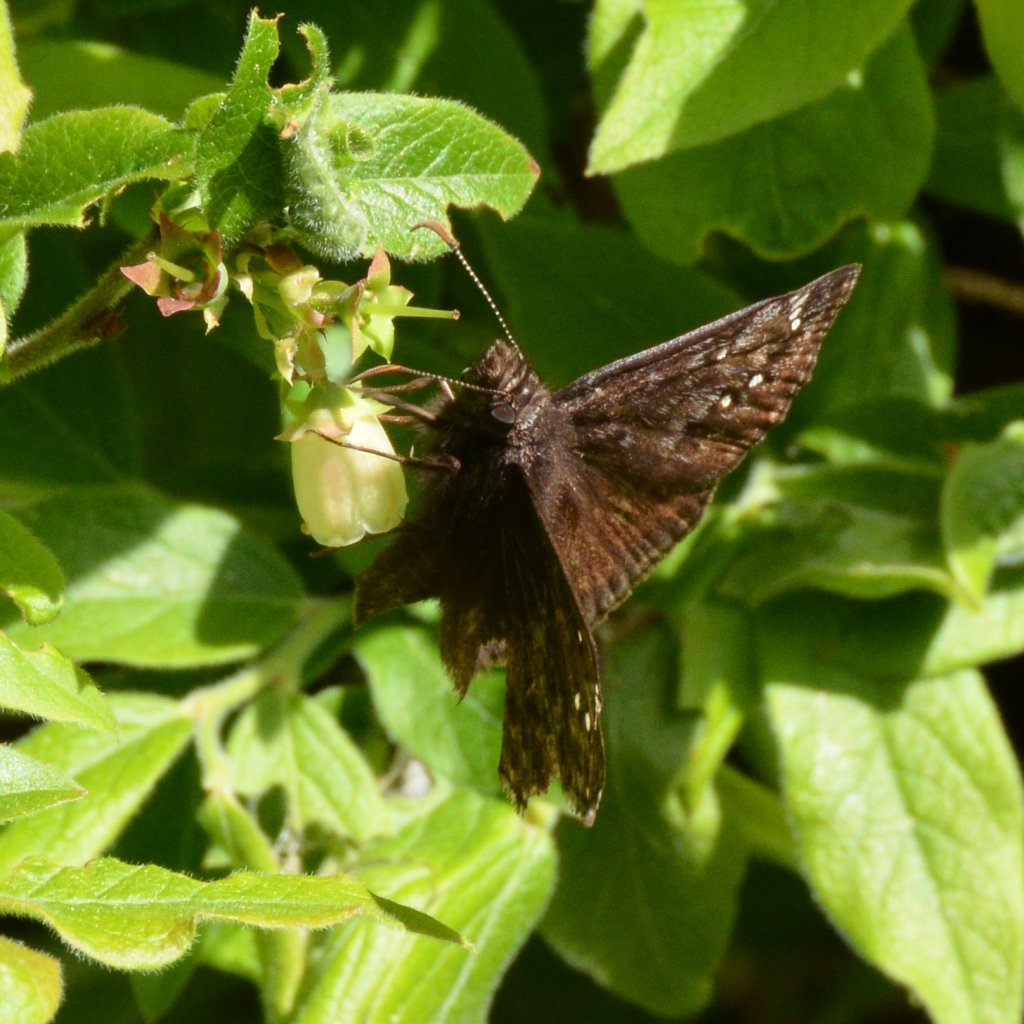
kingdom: Animalia
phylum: Arthropoda
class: Insecta
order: Lepidoptera
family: Hesperiidae
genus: Gesta
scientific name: Gesta
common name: Juvenal's Duskywing
